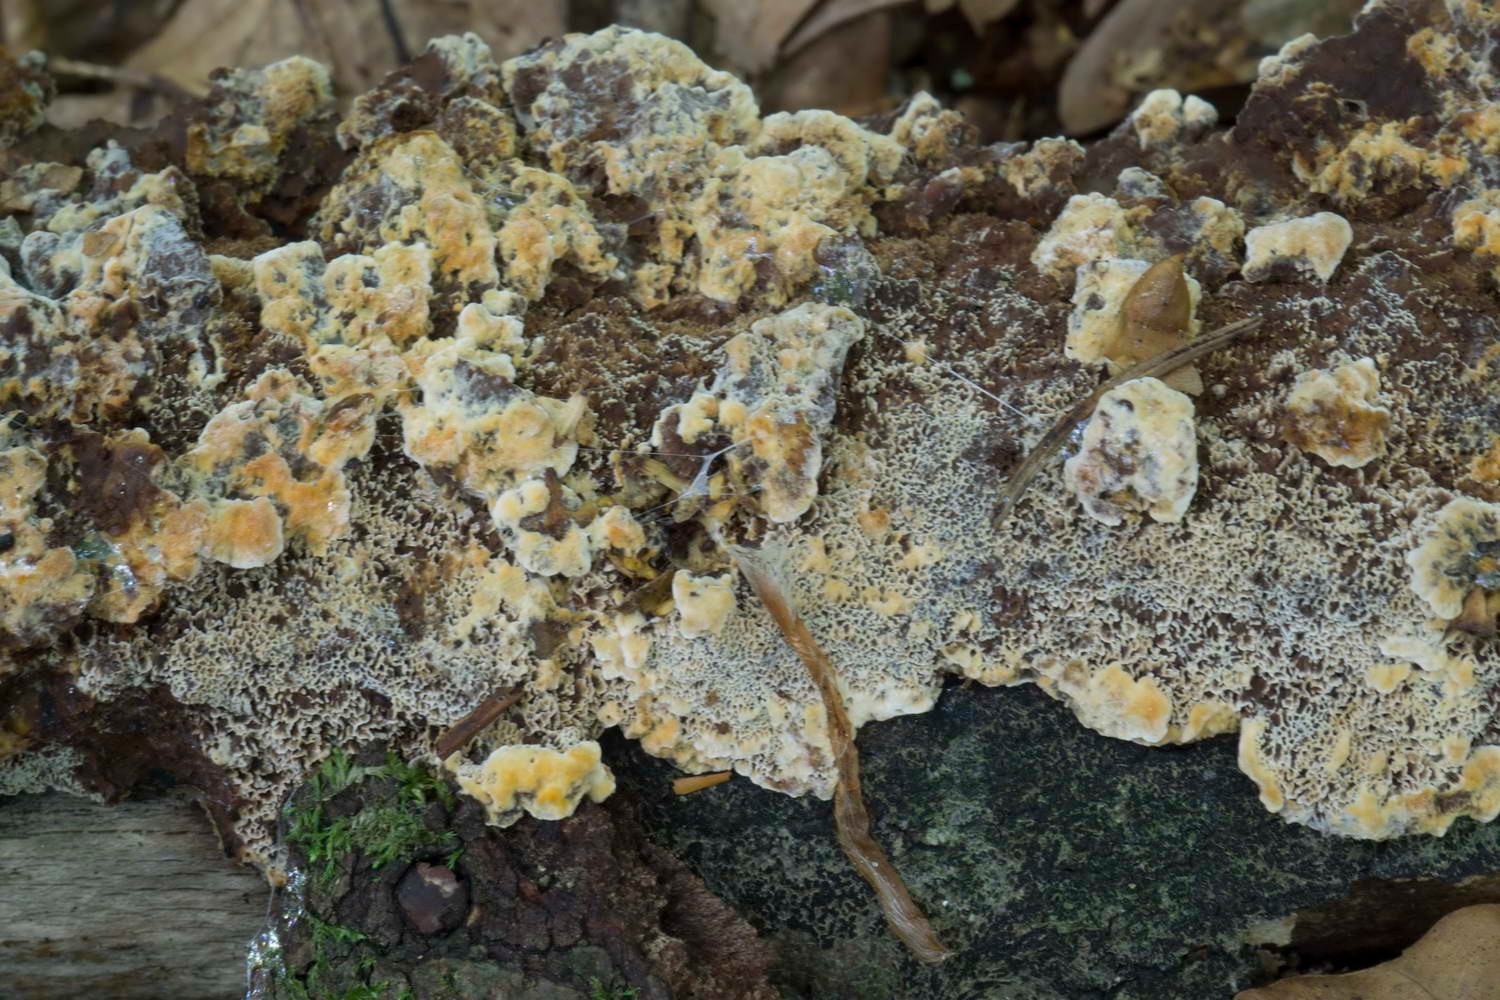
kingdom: Fungi
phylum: Basidiomycota
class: Agaricomycetes
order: Hymenochaetales
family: Hymenochaetaceae
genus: Mensularia
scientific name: Mensularia nodulosa
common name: bøge-spejlporesvamp
